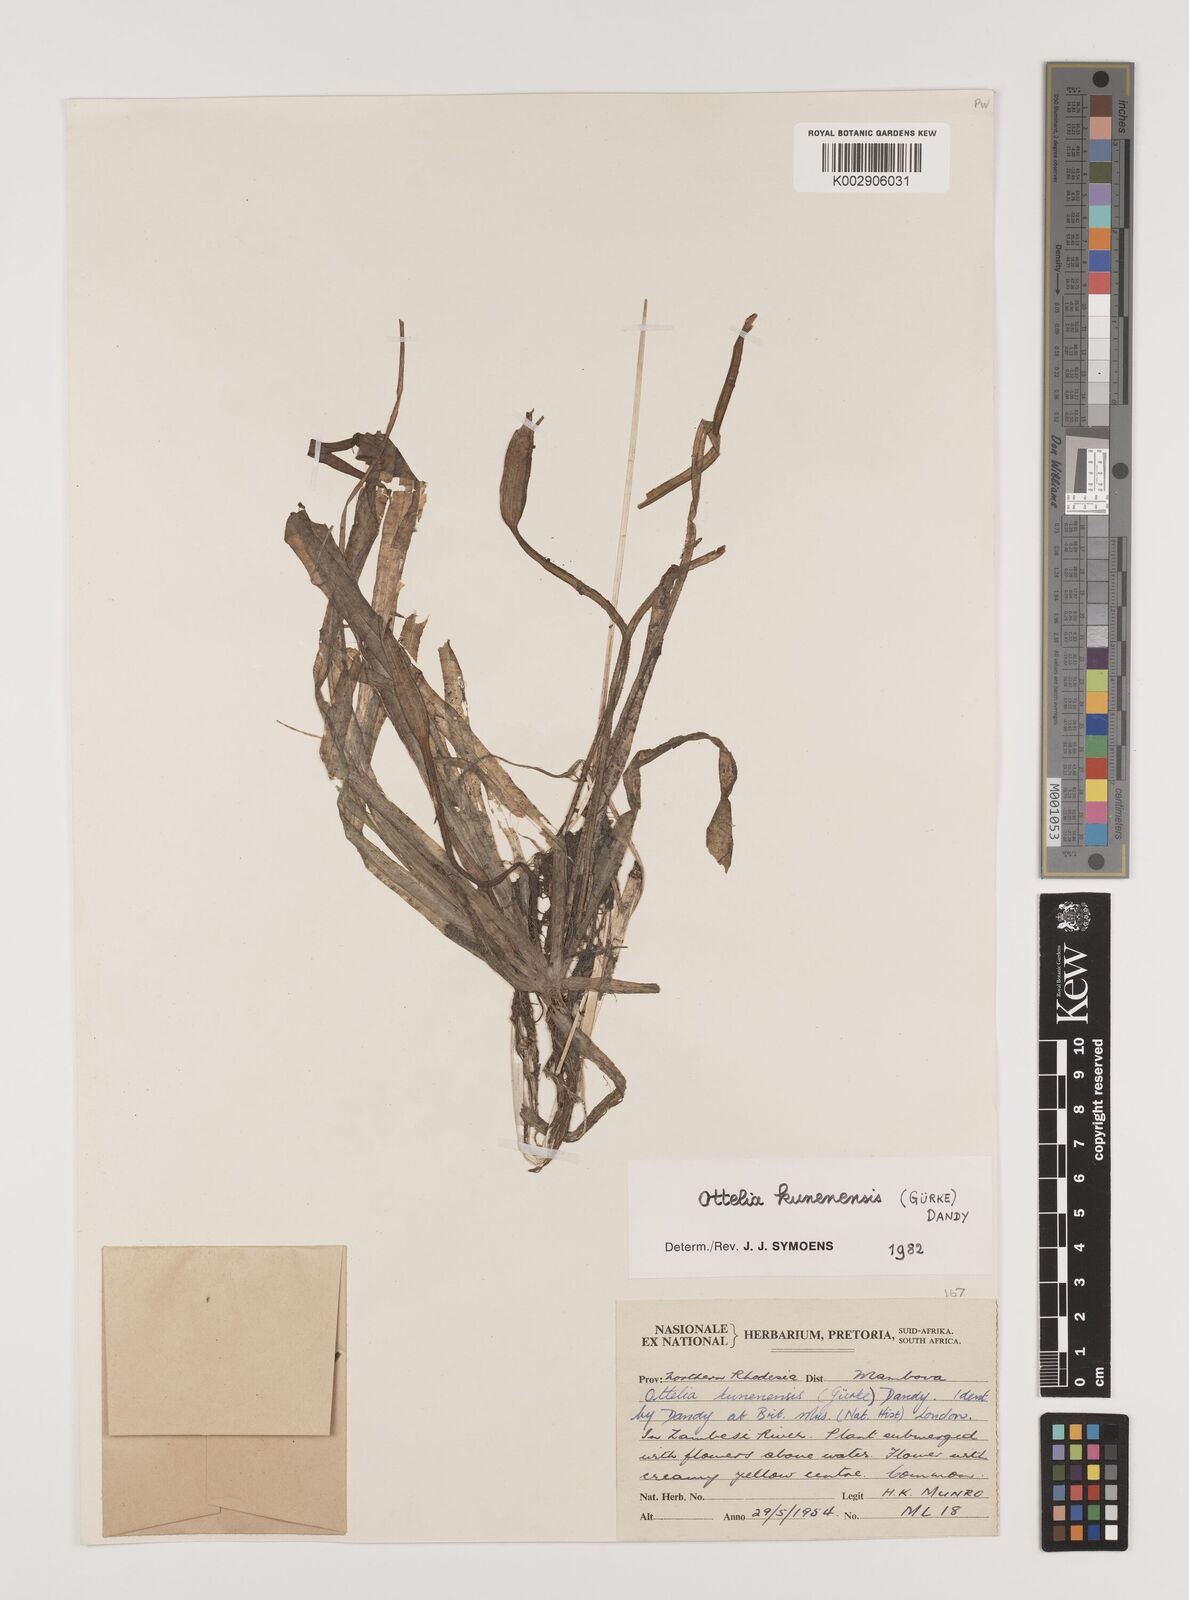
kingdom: Plantae
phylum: Tracheophyta
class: Liliopsida
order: Alismatales
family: Hydrocharitaceae
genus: Ottelia
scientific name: Ottelia kunenensis
